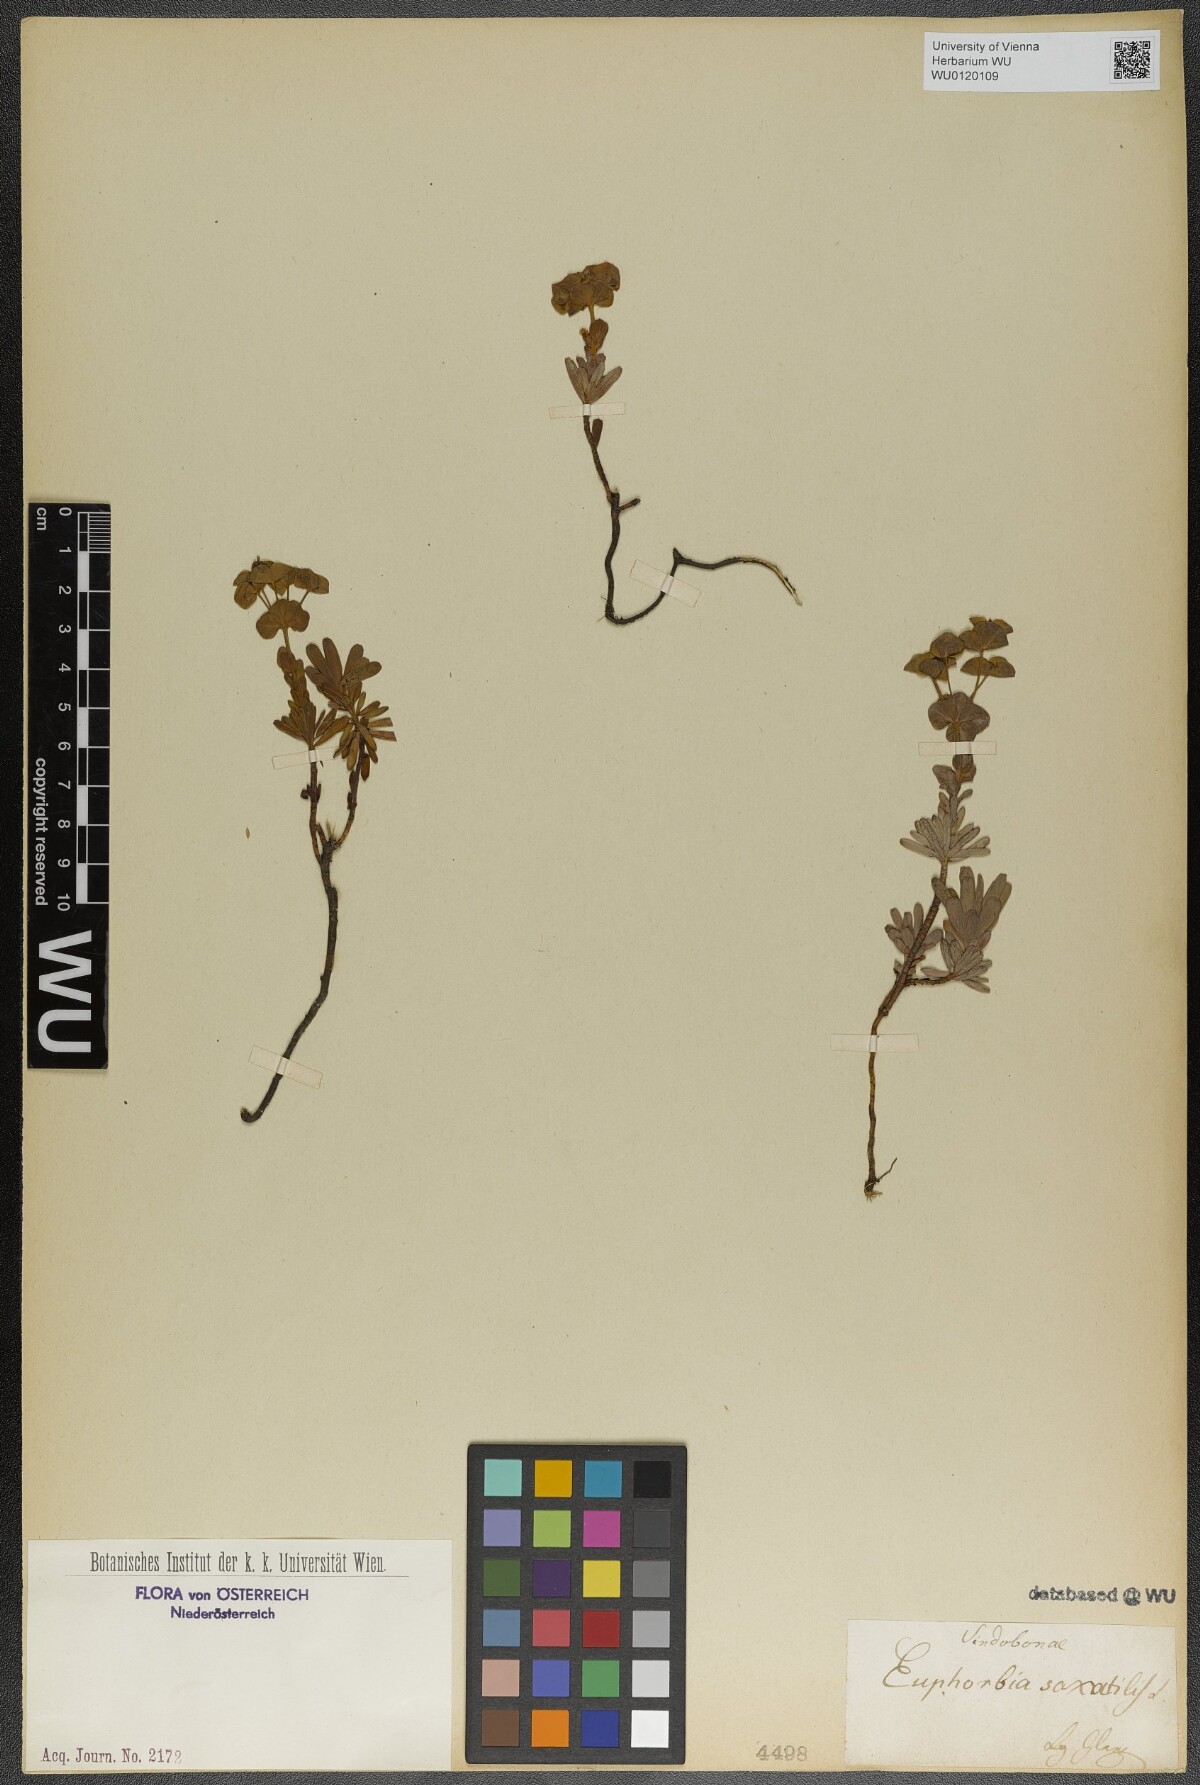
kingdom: Plantae
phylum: Tracheophyta
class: Magnoliopsida
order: Malpighiales
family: Euphorbiaceae
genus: Euphorbia
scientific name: Euphorbia saxatilis
